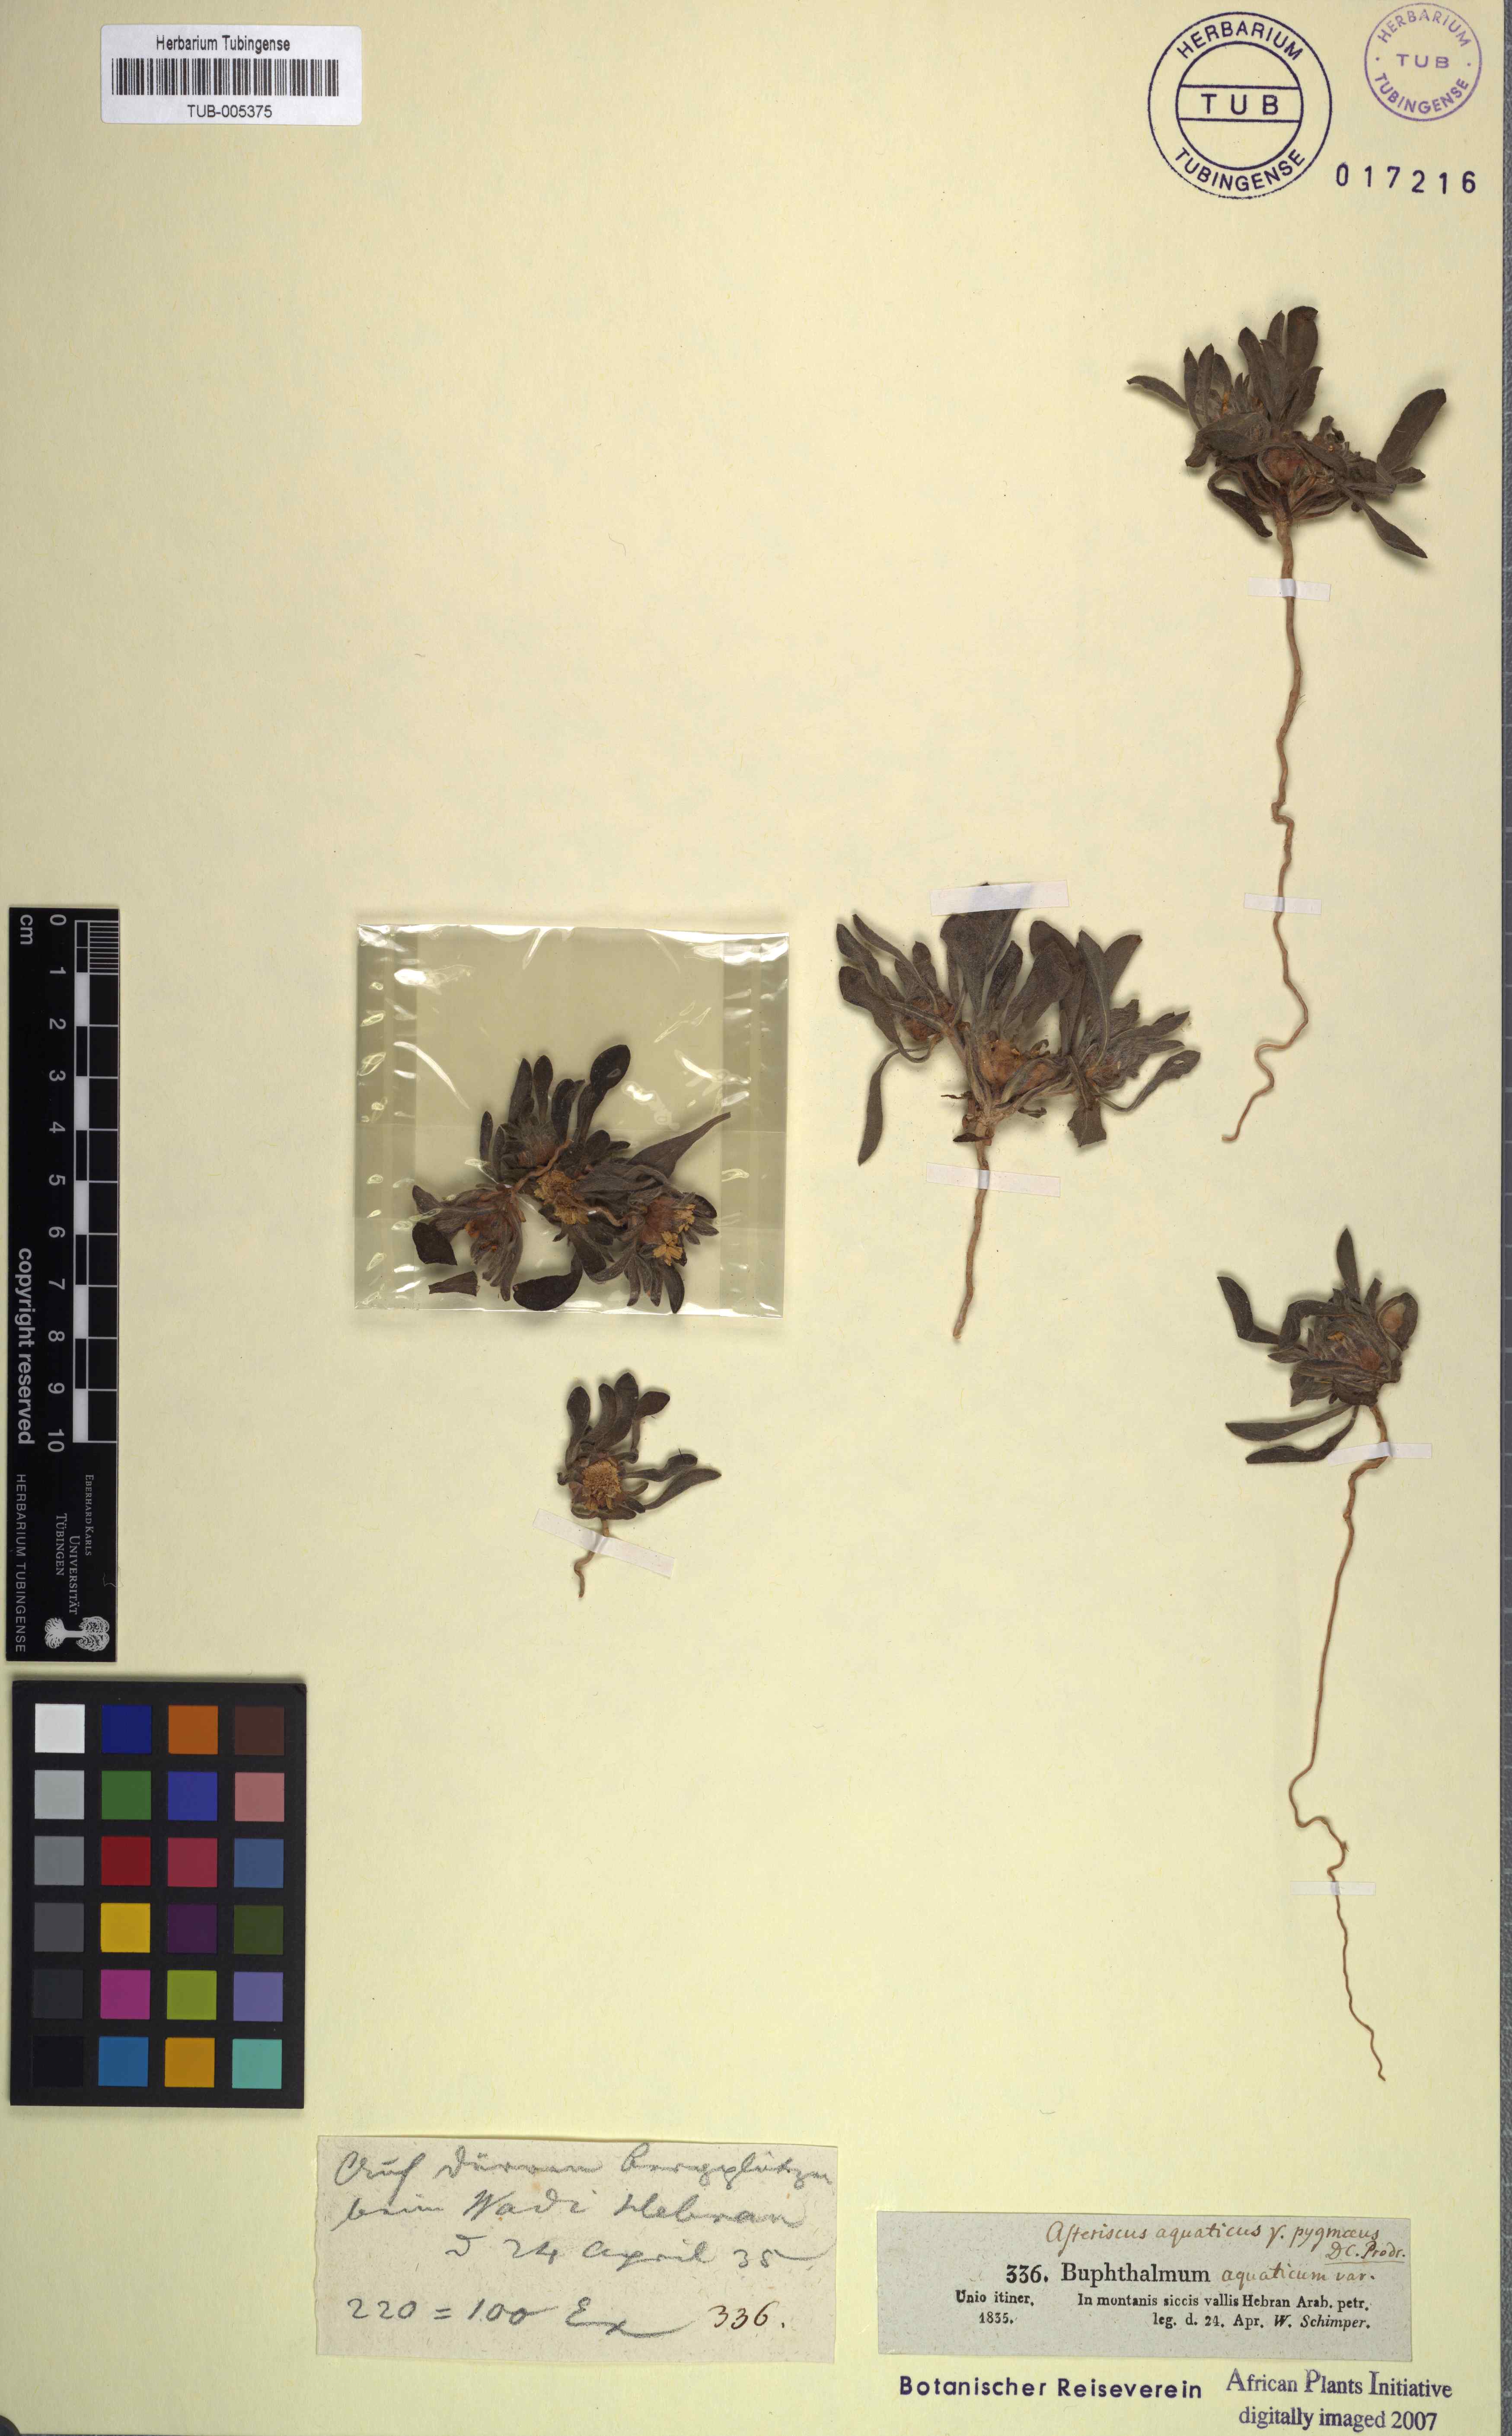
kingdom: Plantae
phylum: Tracheophyta
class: Magnoliopsida
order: Asterales
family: Asteraceae
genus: Asteriscus
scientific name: Asteriscus aquaticus
